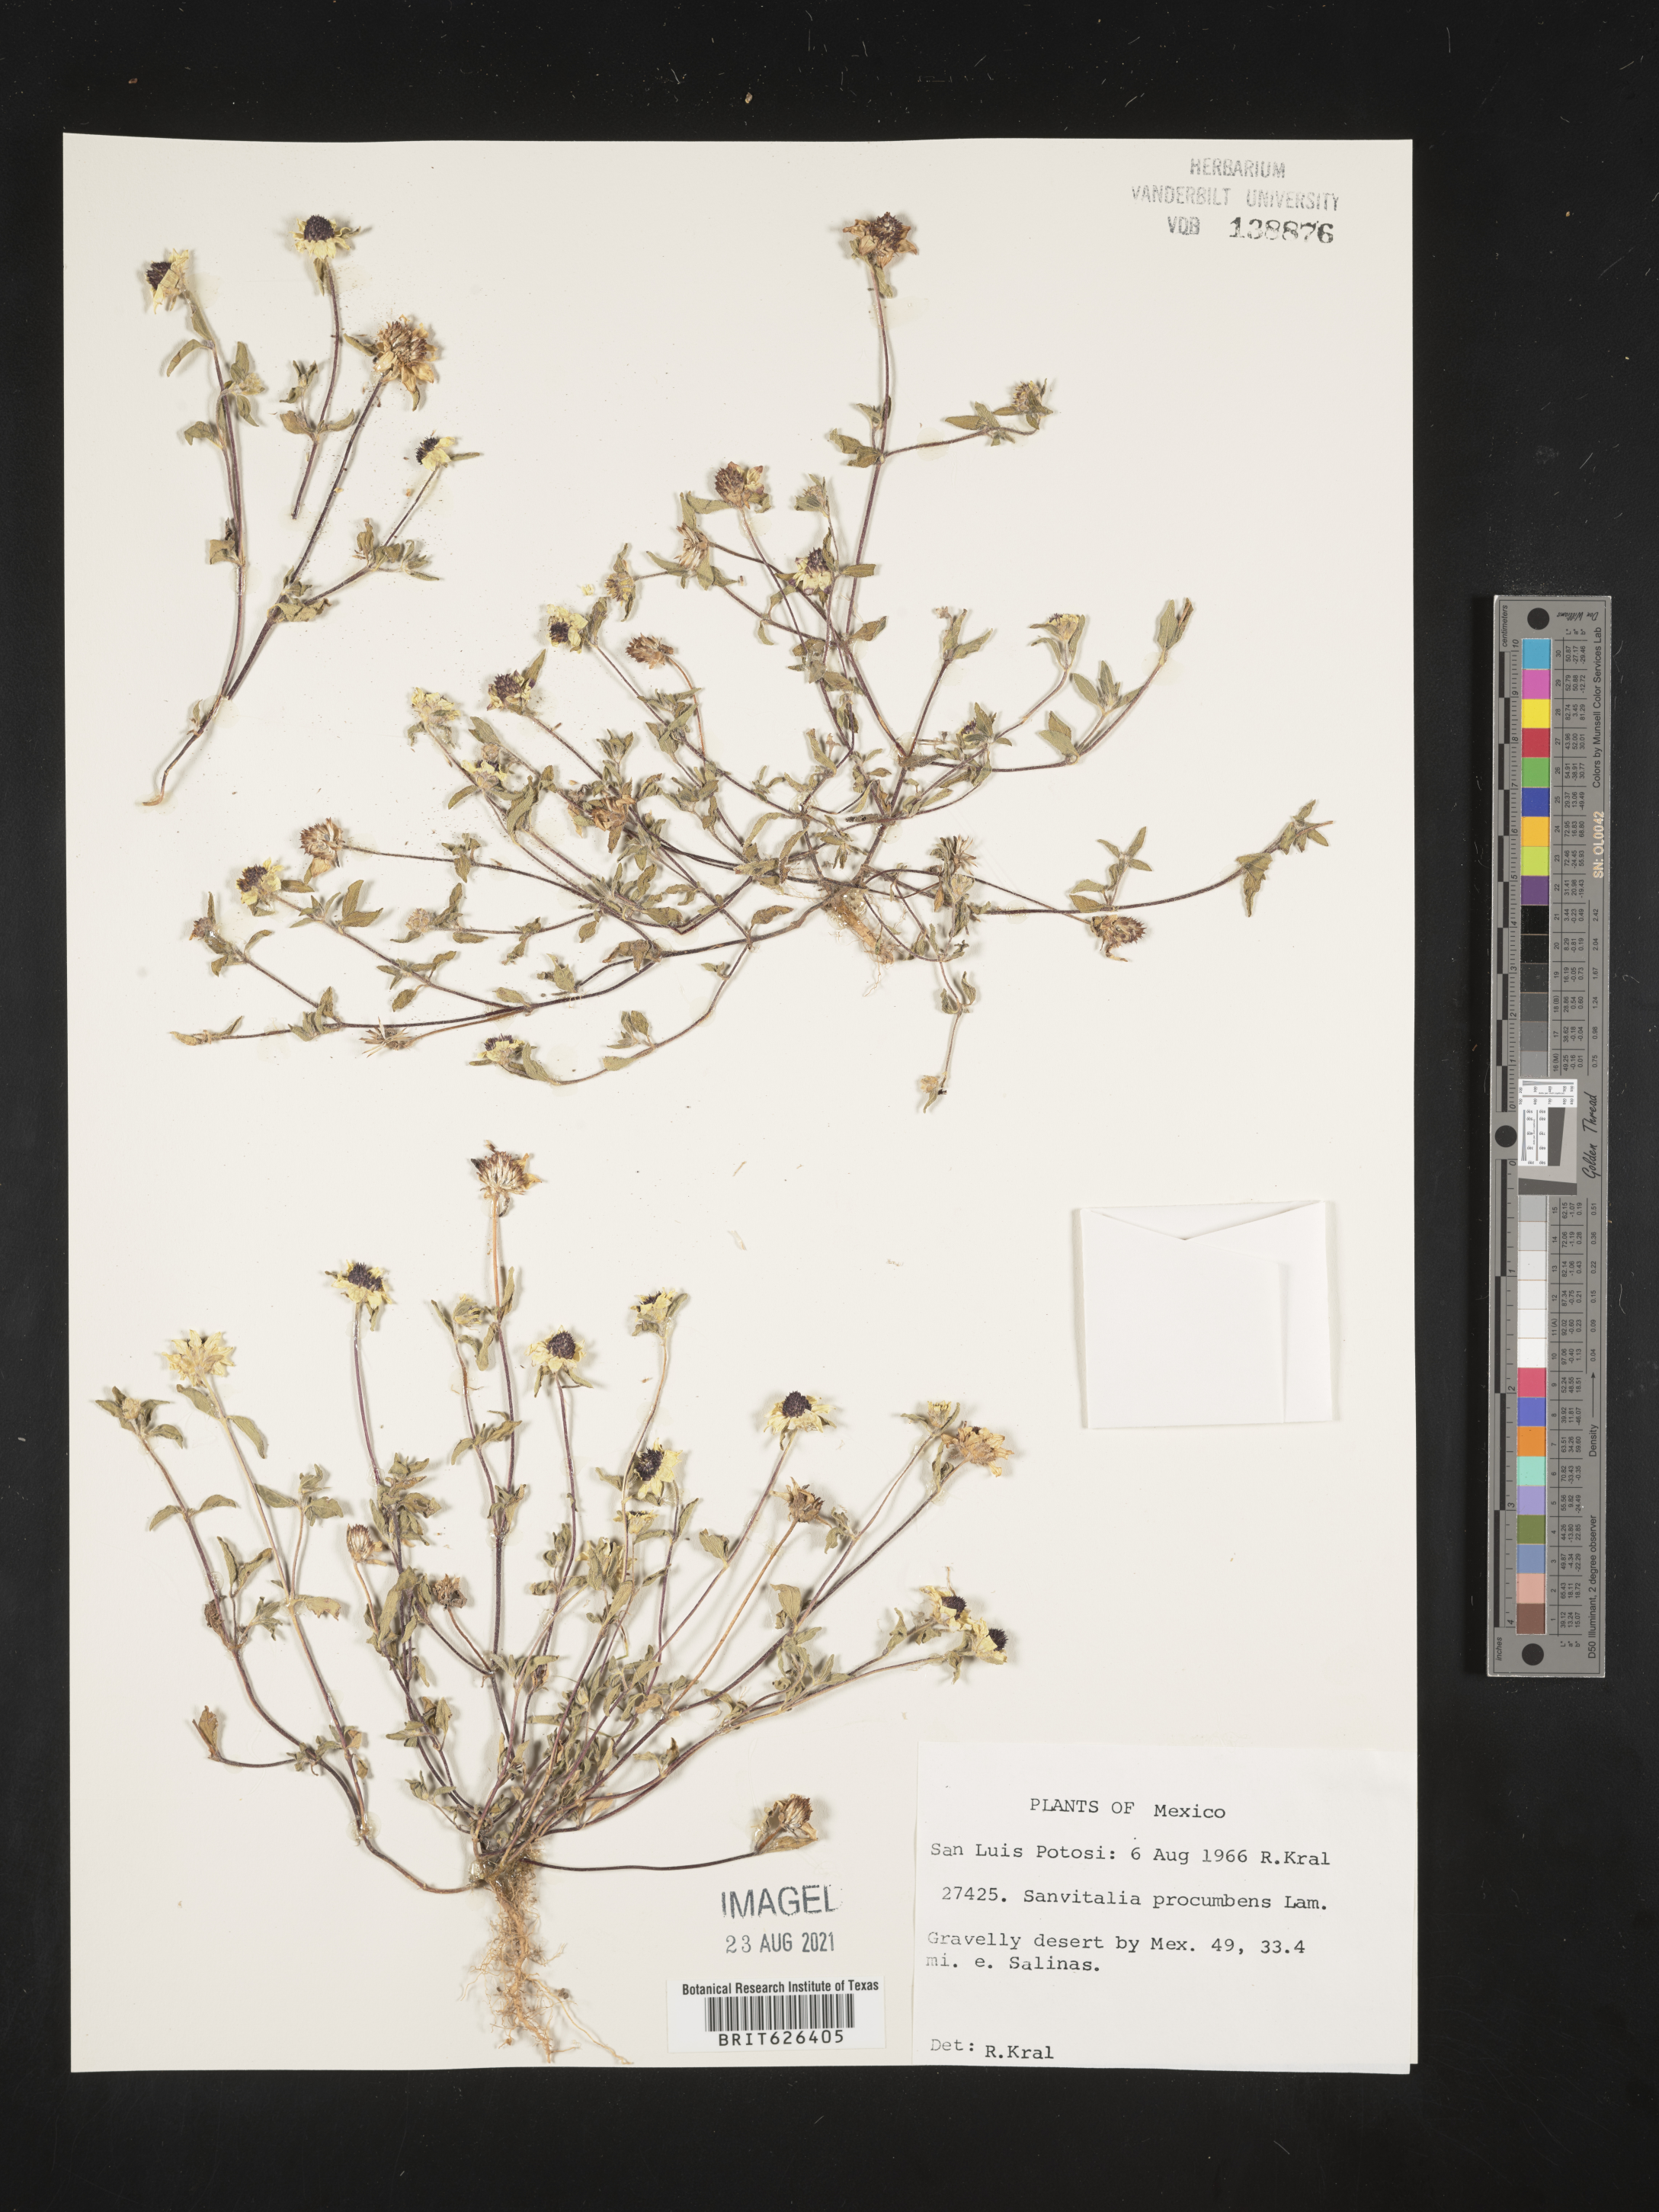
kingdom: Plantae
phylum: Tracheophyta
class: Magnoliopsida
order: Asterales
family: Asteraceae
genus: Sanvitalia
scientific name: Sanvitalia
